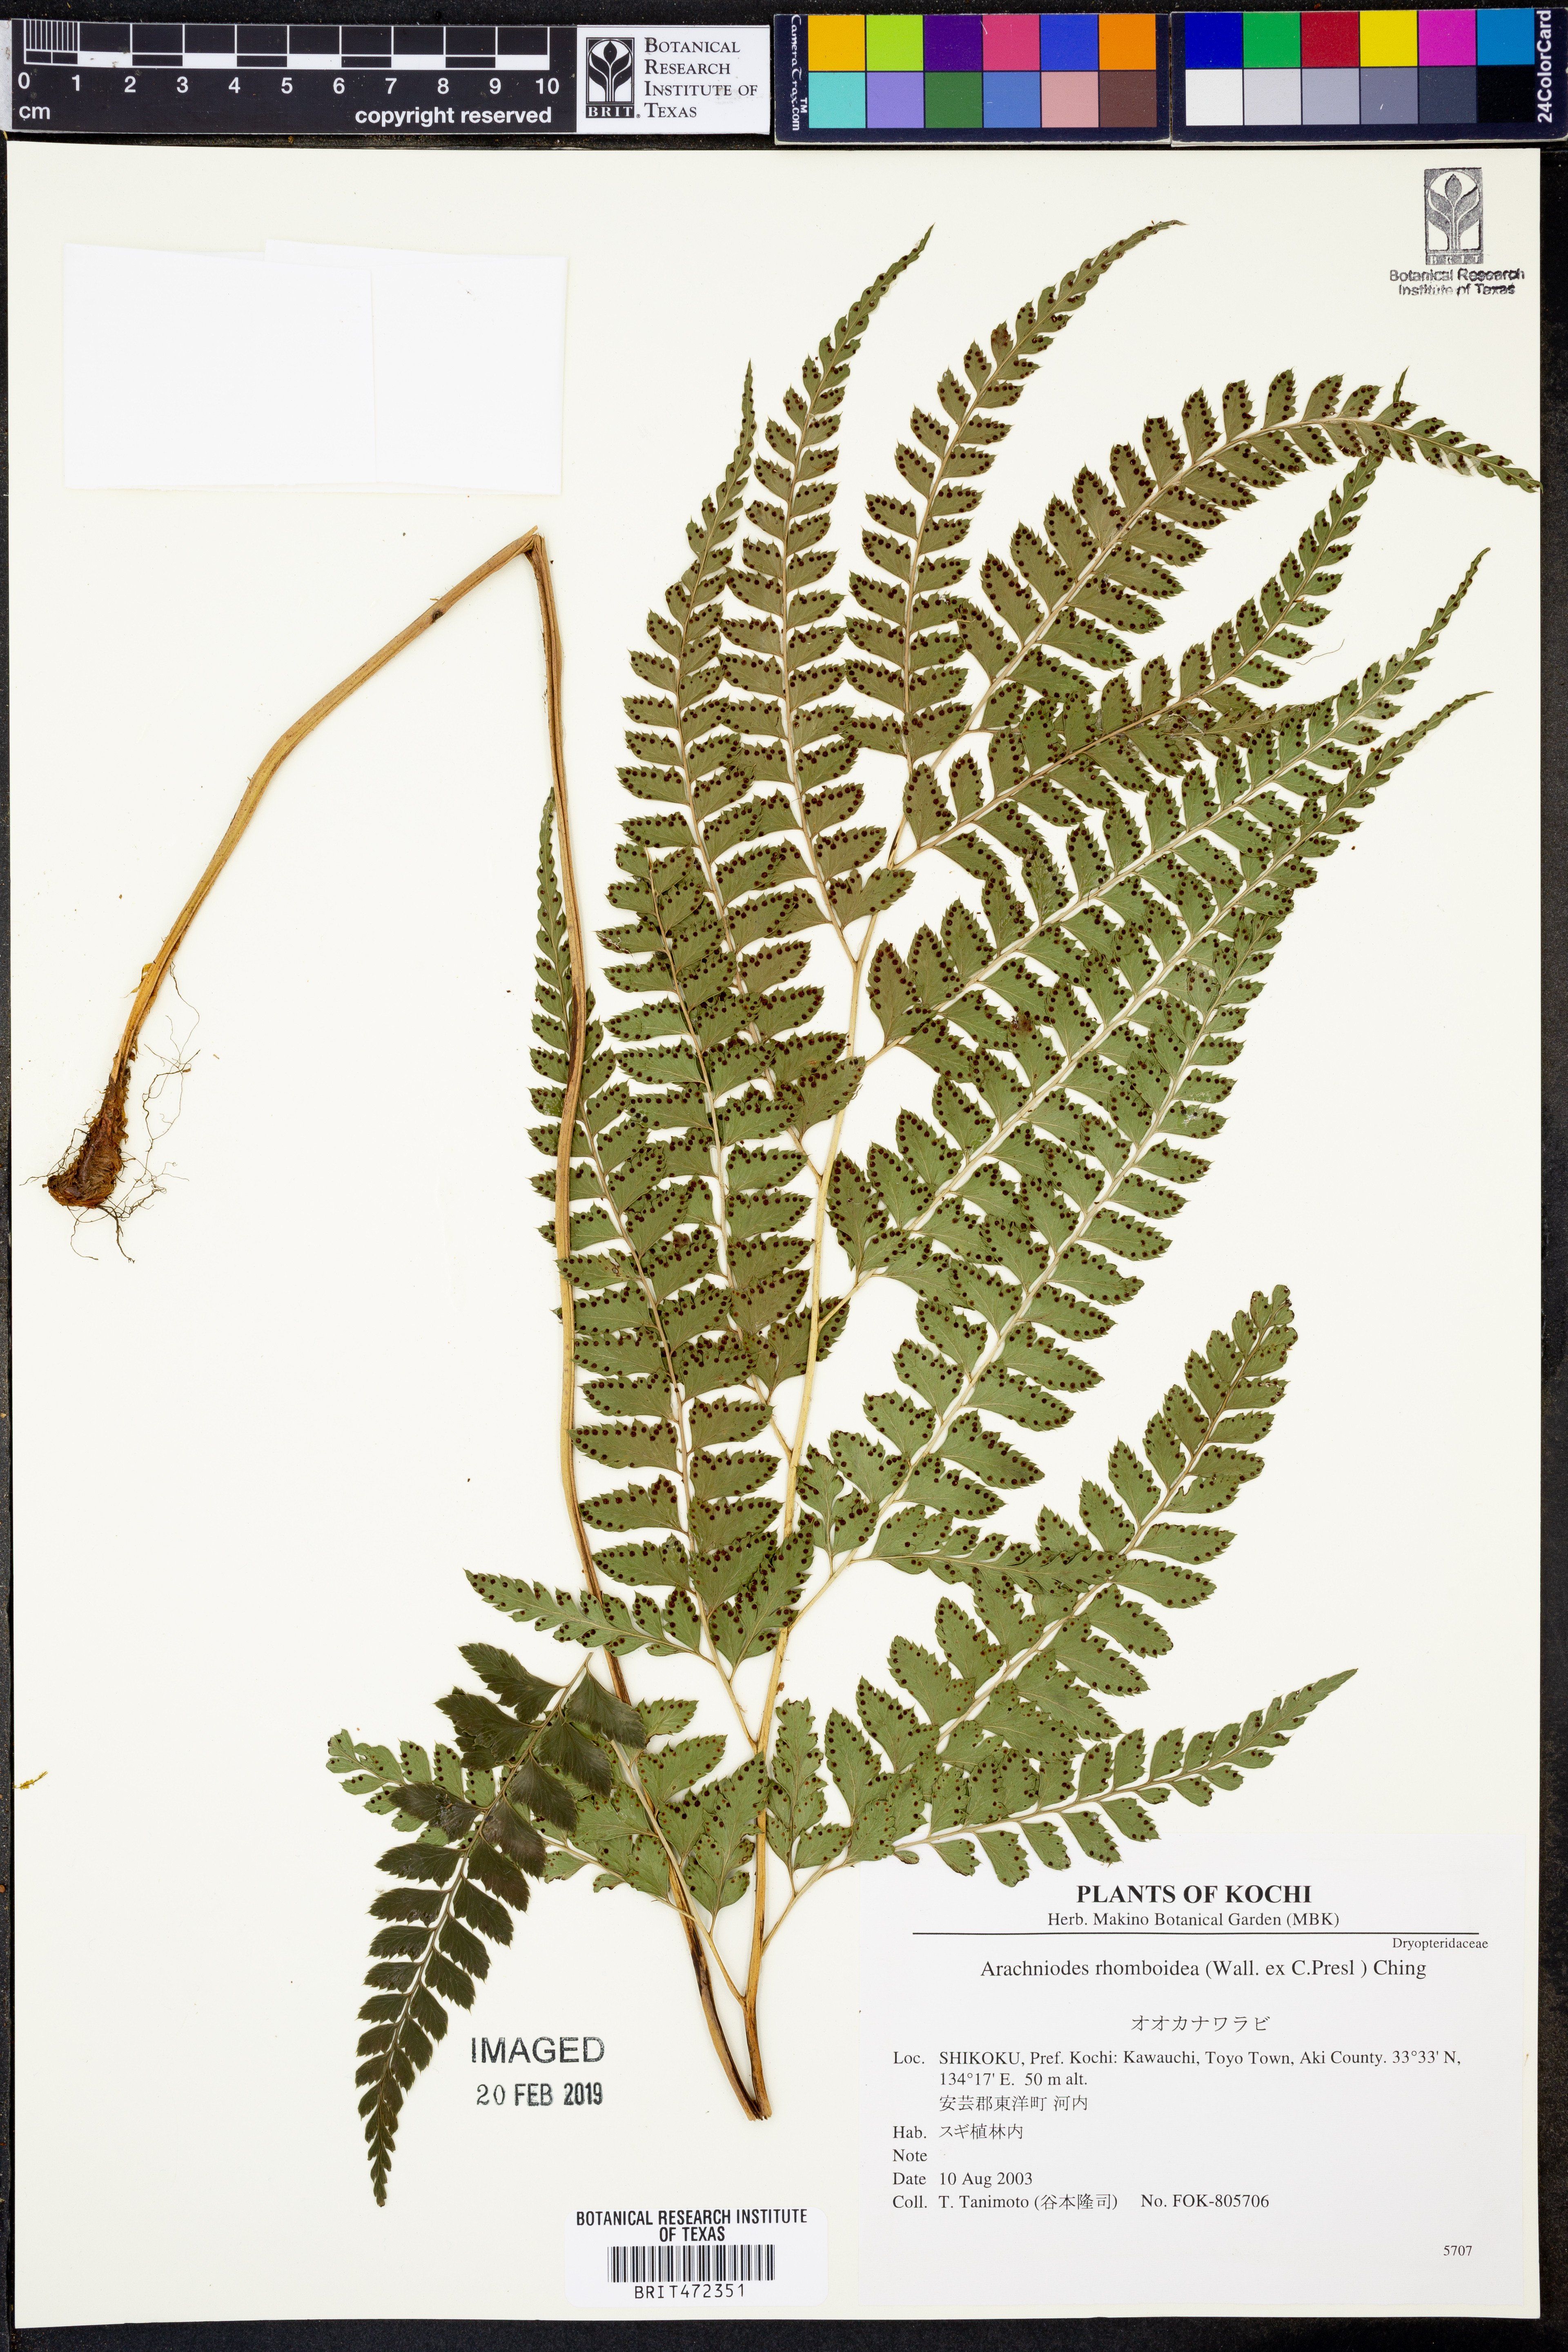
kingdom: Plantae
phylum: Tracheophyta
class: Polypodiopsida
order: Polypodiales
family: Dryopteridaceae
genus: Arachniodes
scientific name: Arachniodes rhomboidea
